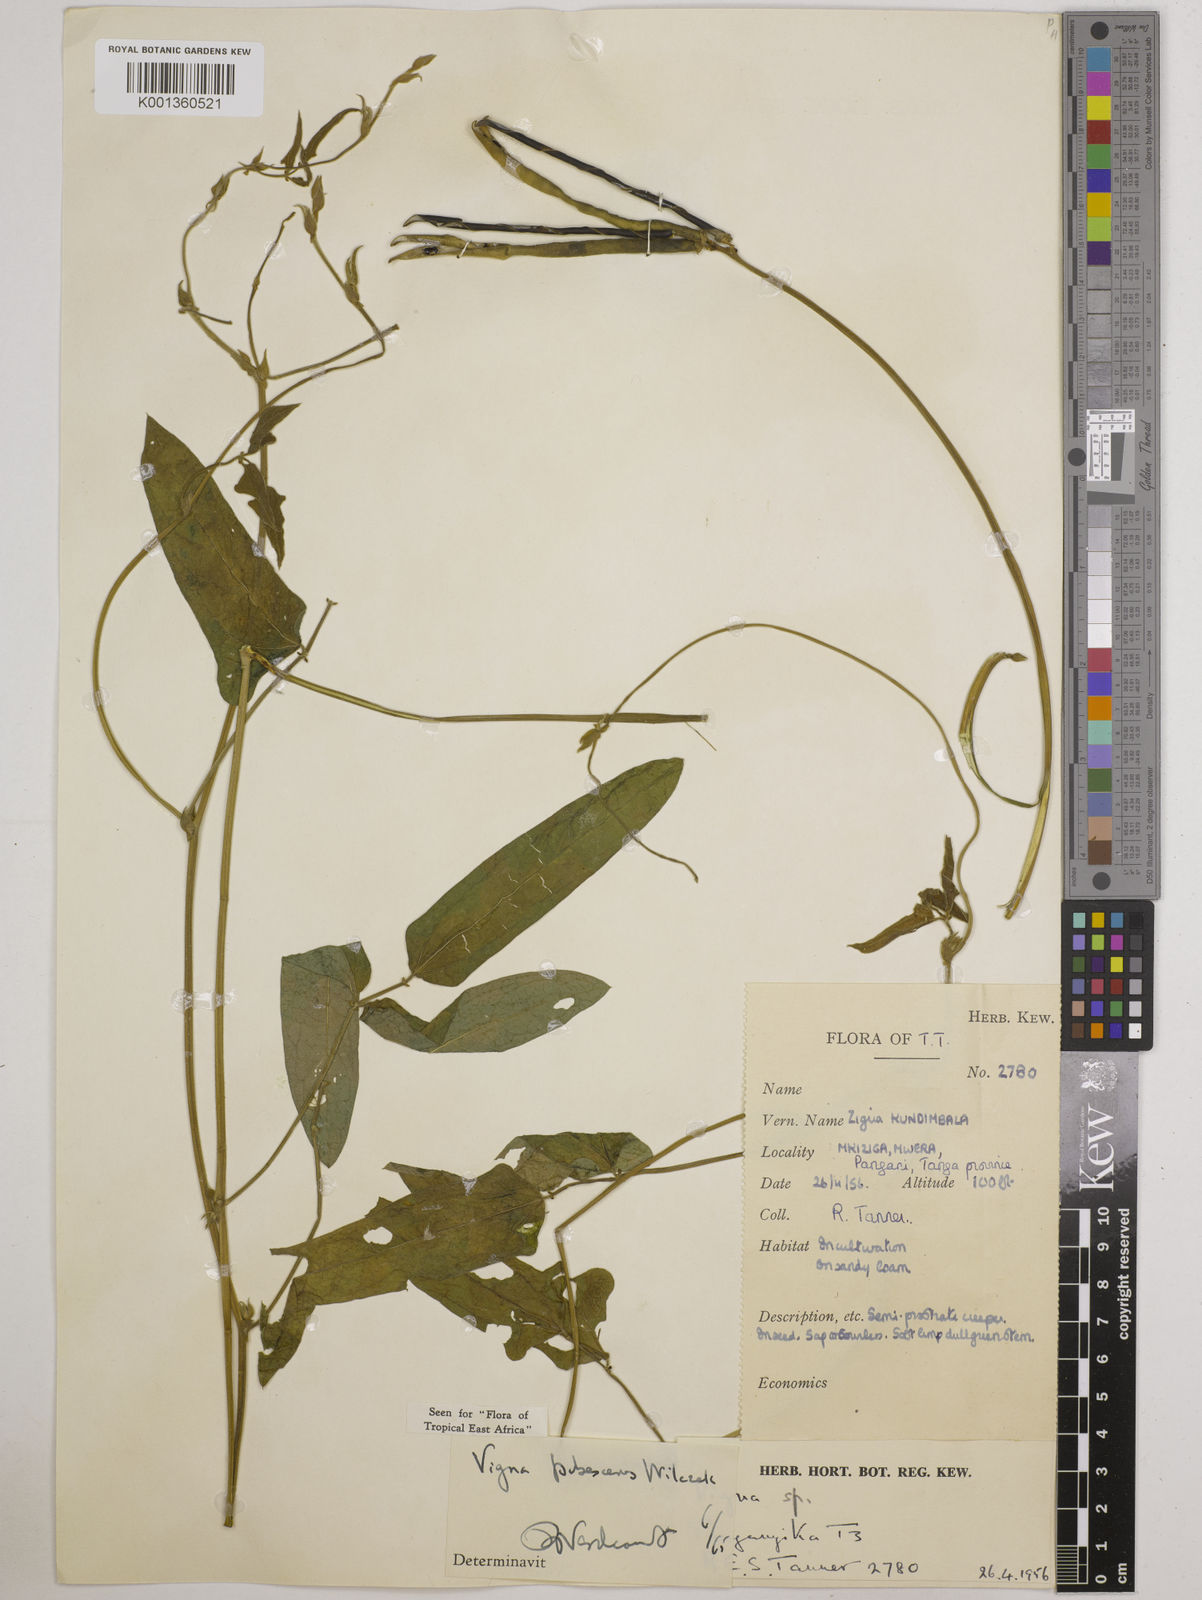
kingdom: Plantae
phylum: Tracheophyta
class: Magnoliopsida
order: Fabales
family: Fabaceae
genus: Vigna
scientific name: Vigna unguiculata
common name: Cowpea
